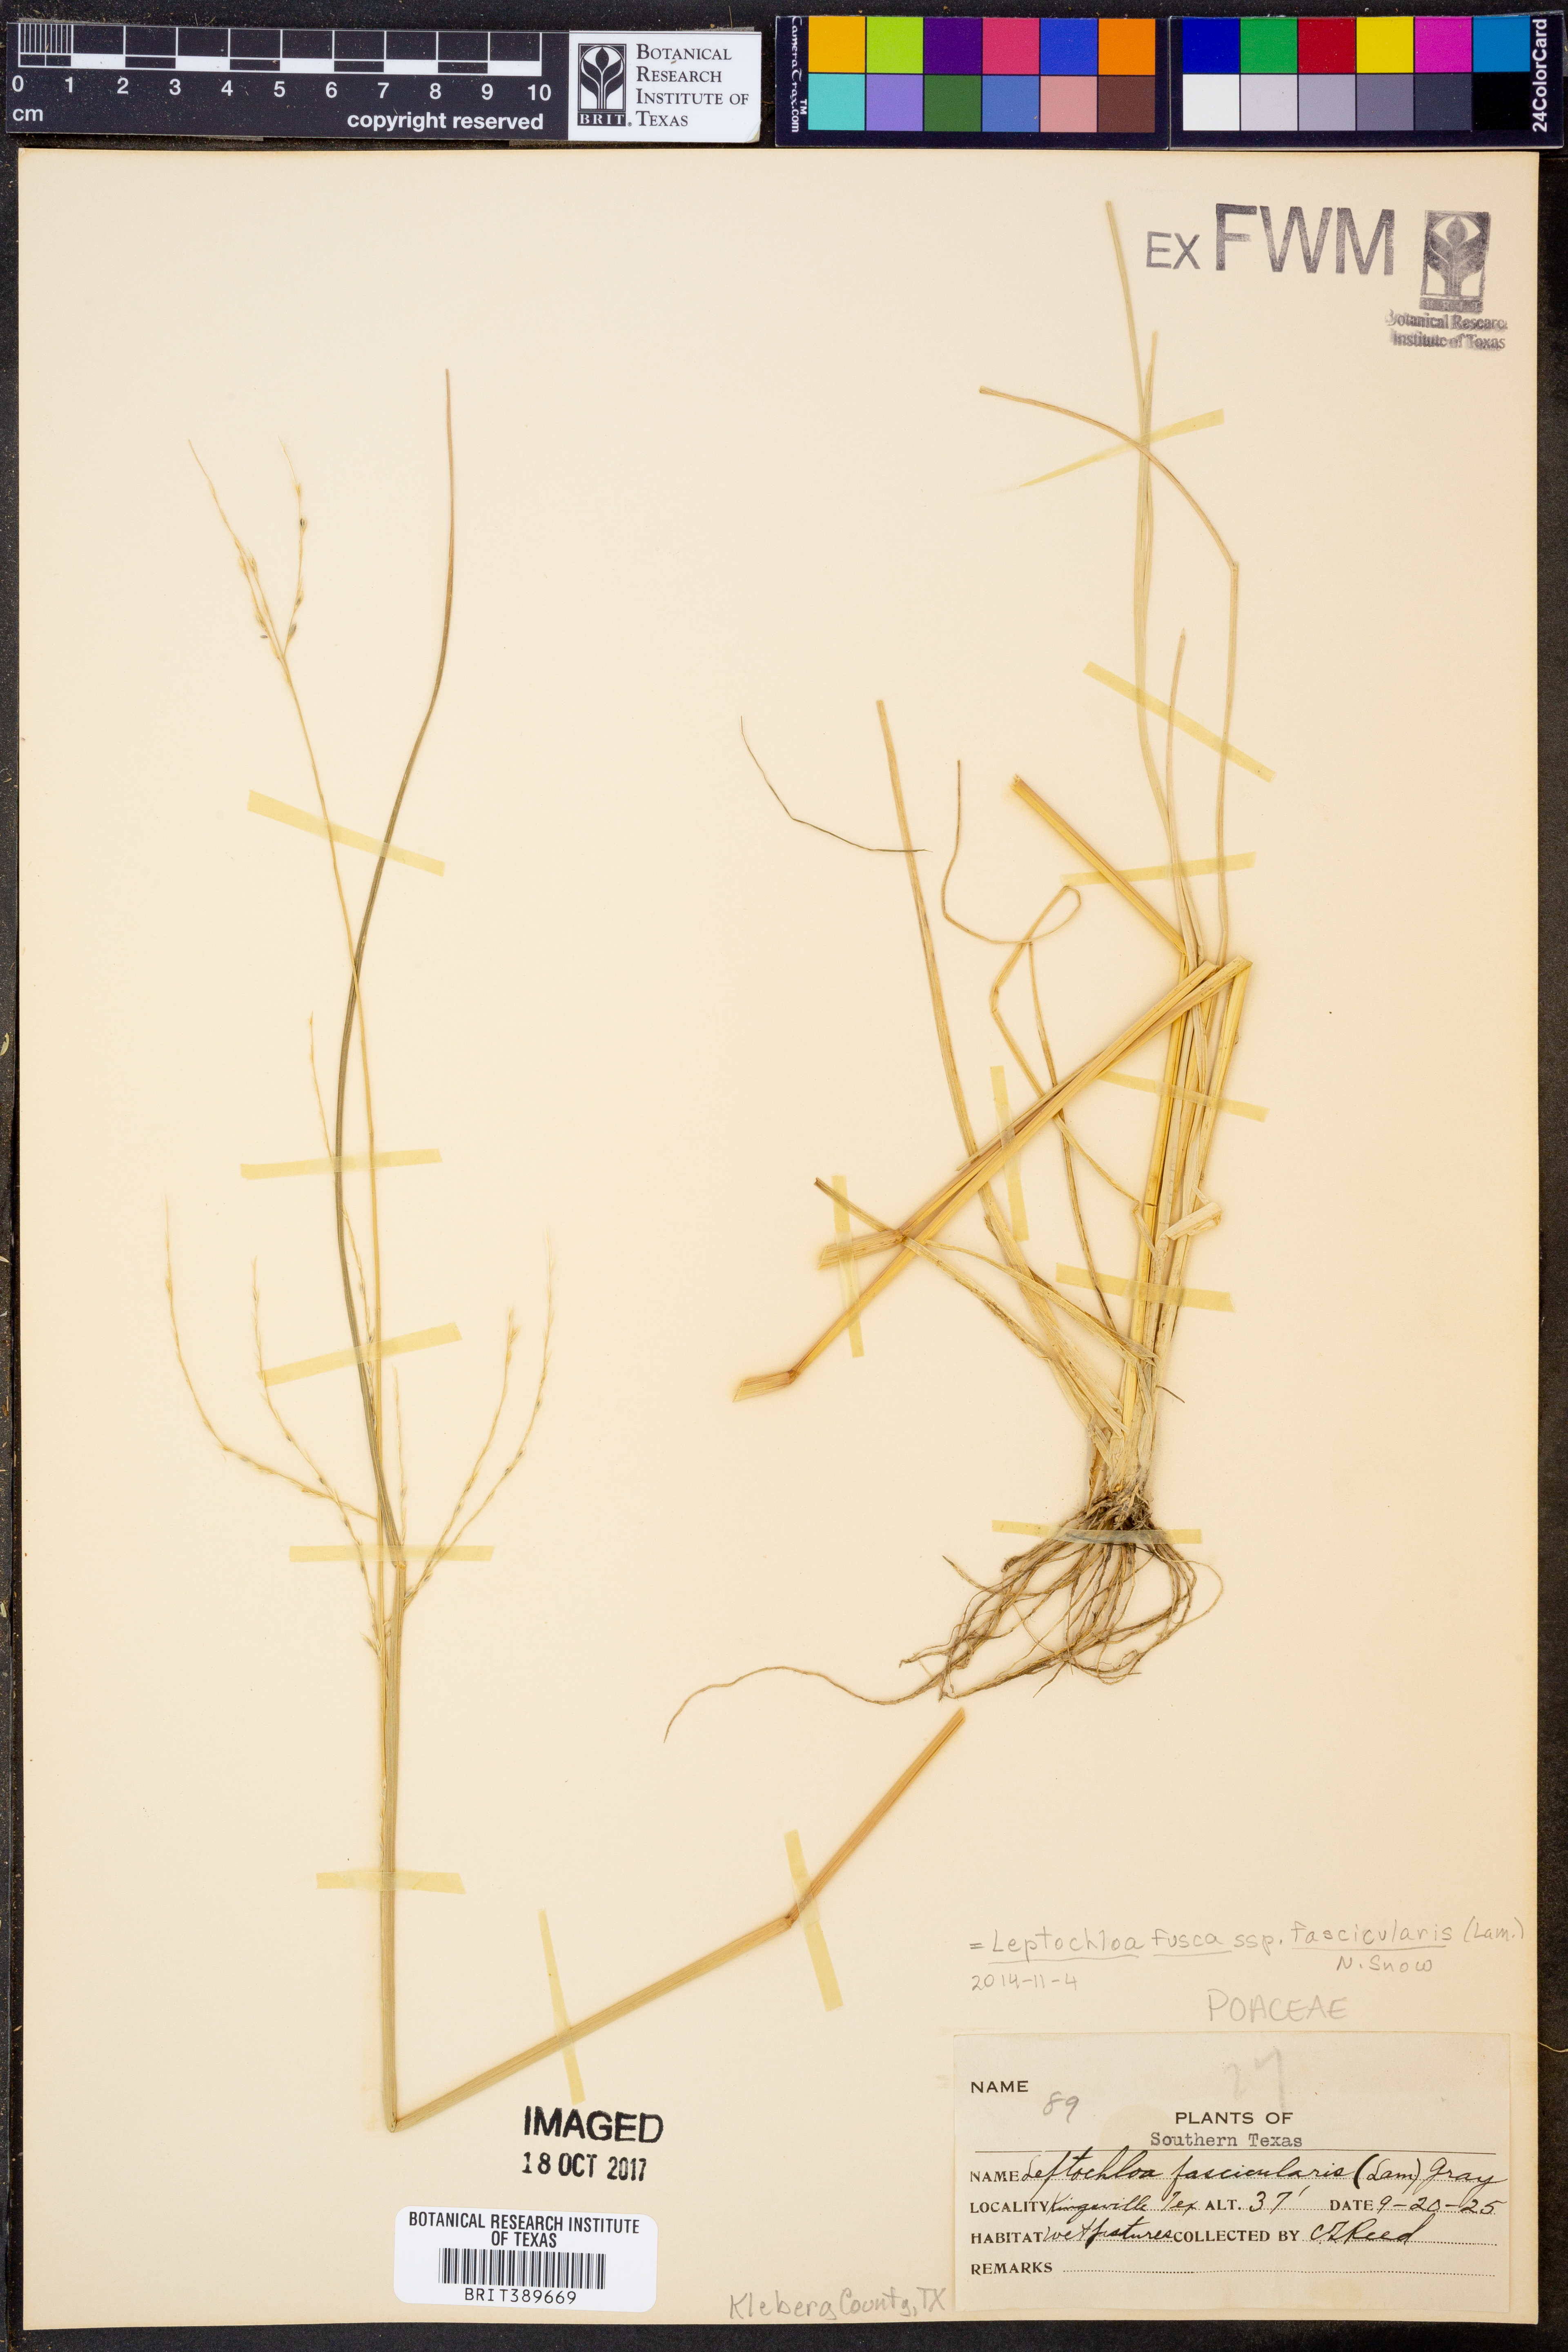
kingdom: Plantae
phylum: Tracheophyta
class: Liliopsida
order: Poales
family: Poaceae
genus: Diplachne
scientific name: Diplachne fusca
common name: Brown beetle grass
